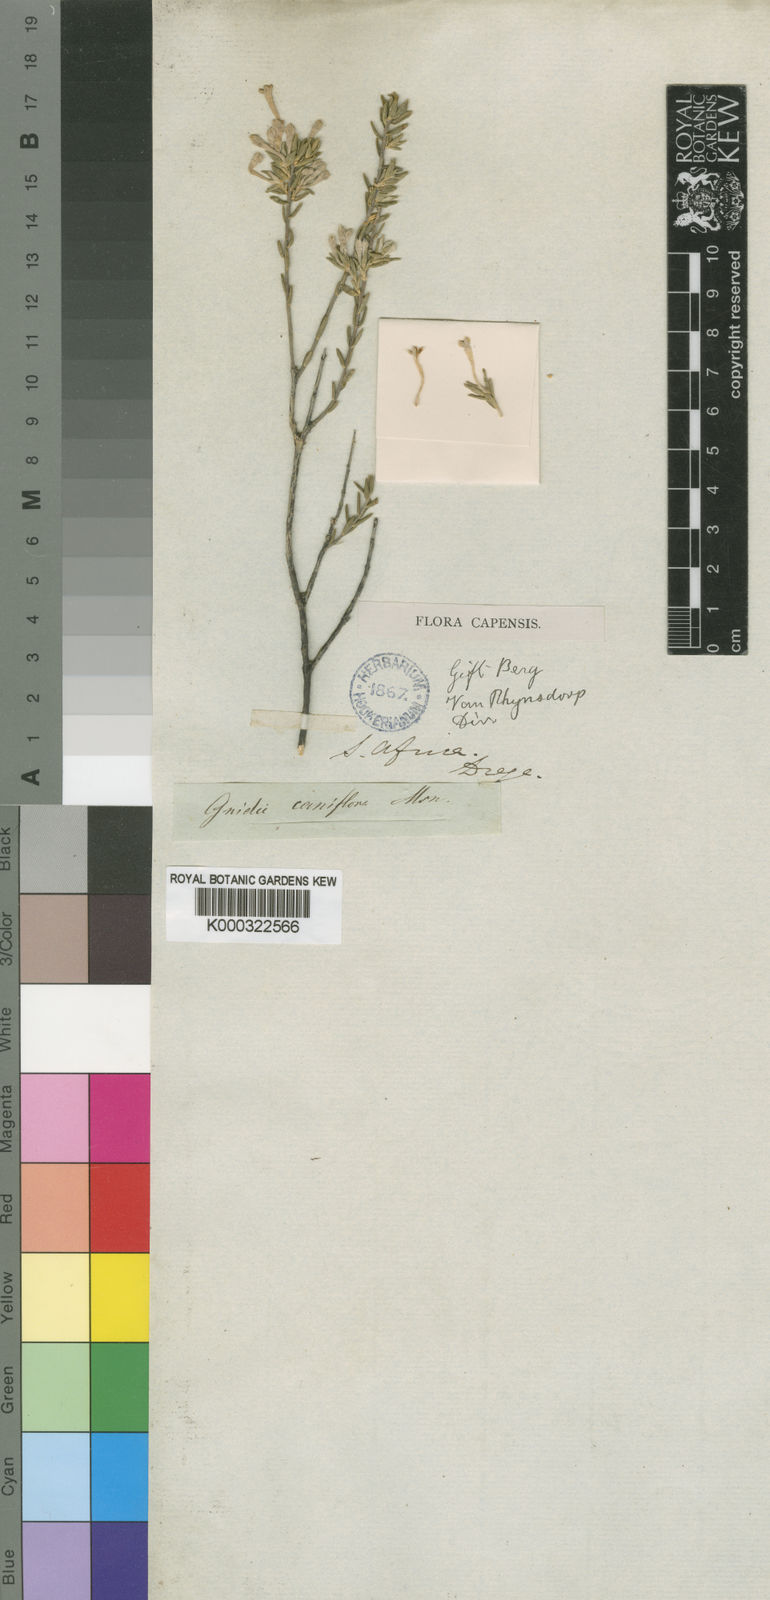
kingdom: Plantae
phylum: Tracheophyta
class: Magnoliopsida
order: Malvales
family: Thymelaeaceae
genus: Gnidia
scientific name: Gnidia caniflora
